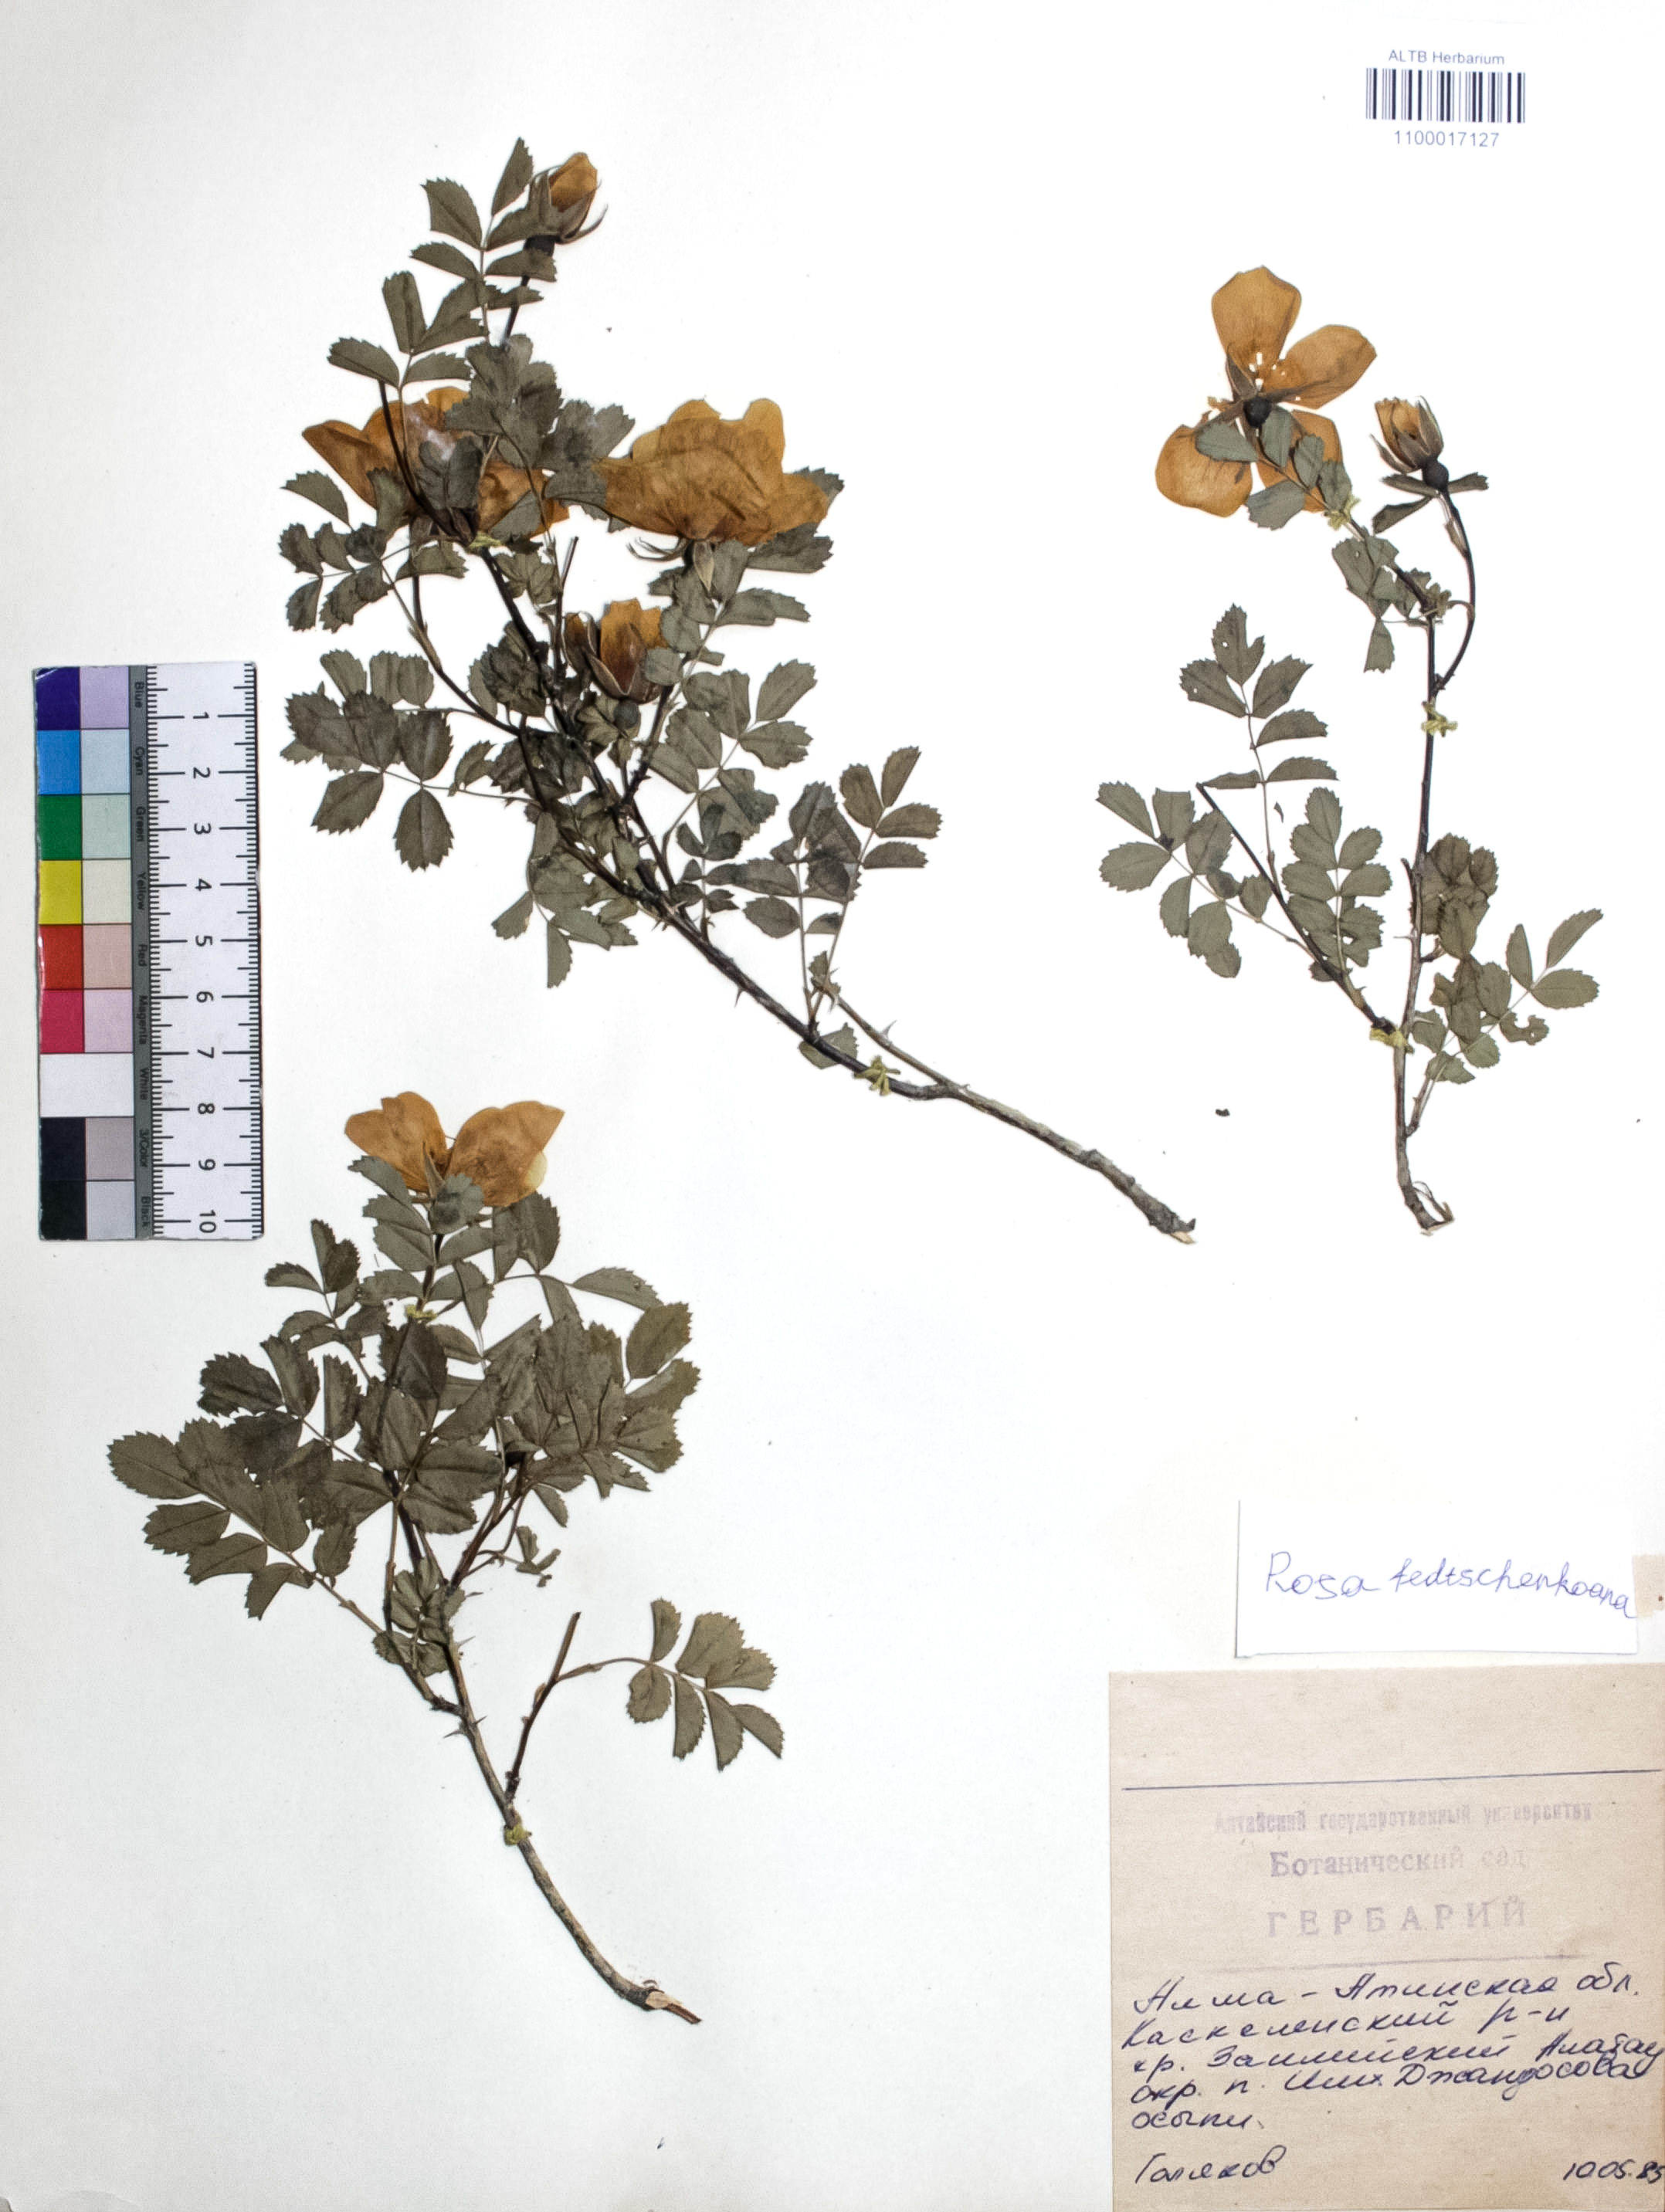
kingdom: Plantae
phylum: Tracheophyta
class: Magnoliopsida
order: Rosales
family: Rosaceae
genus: Rosa
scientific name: Rosa webbiana
